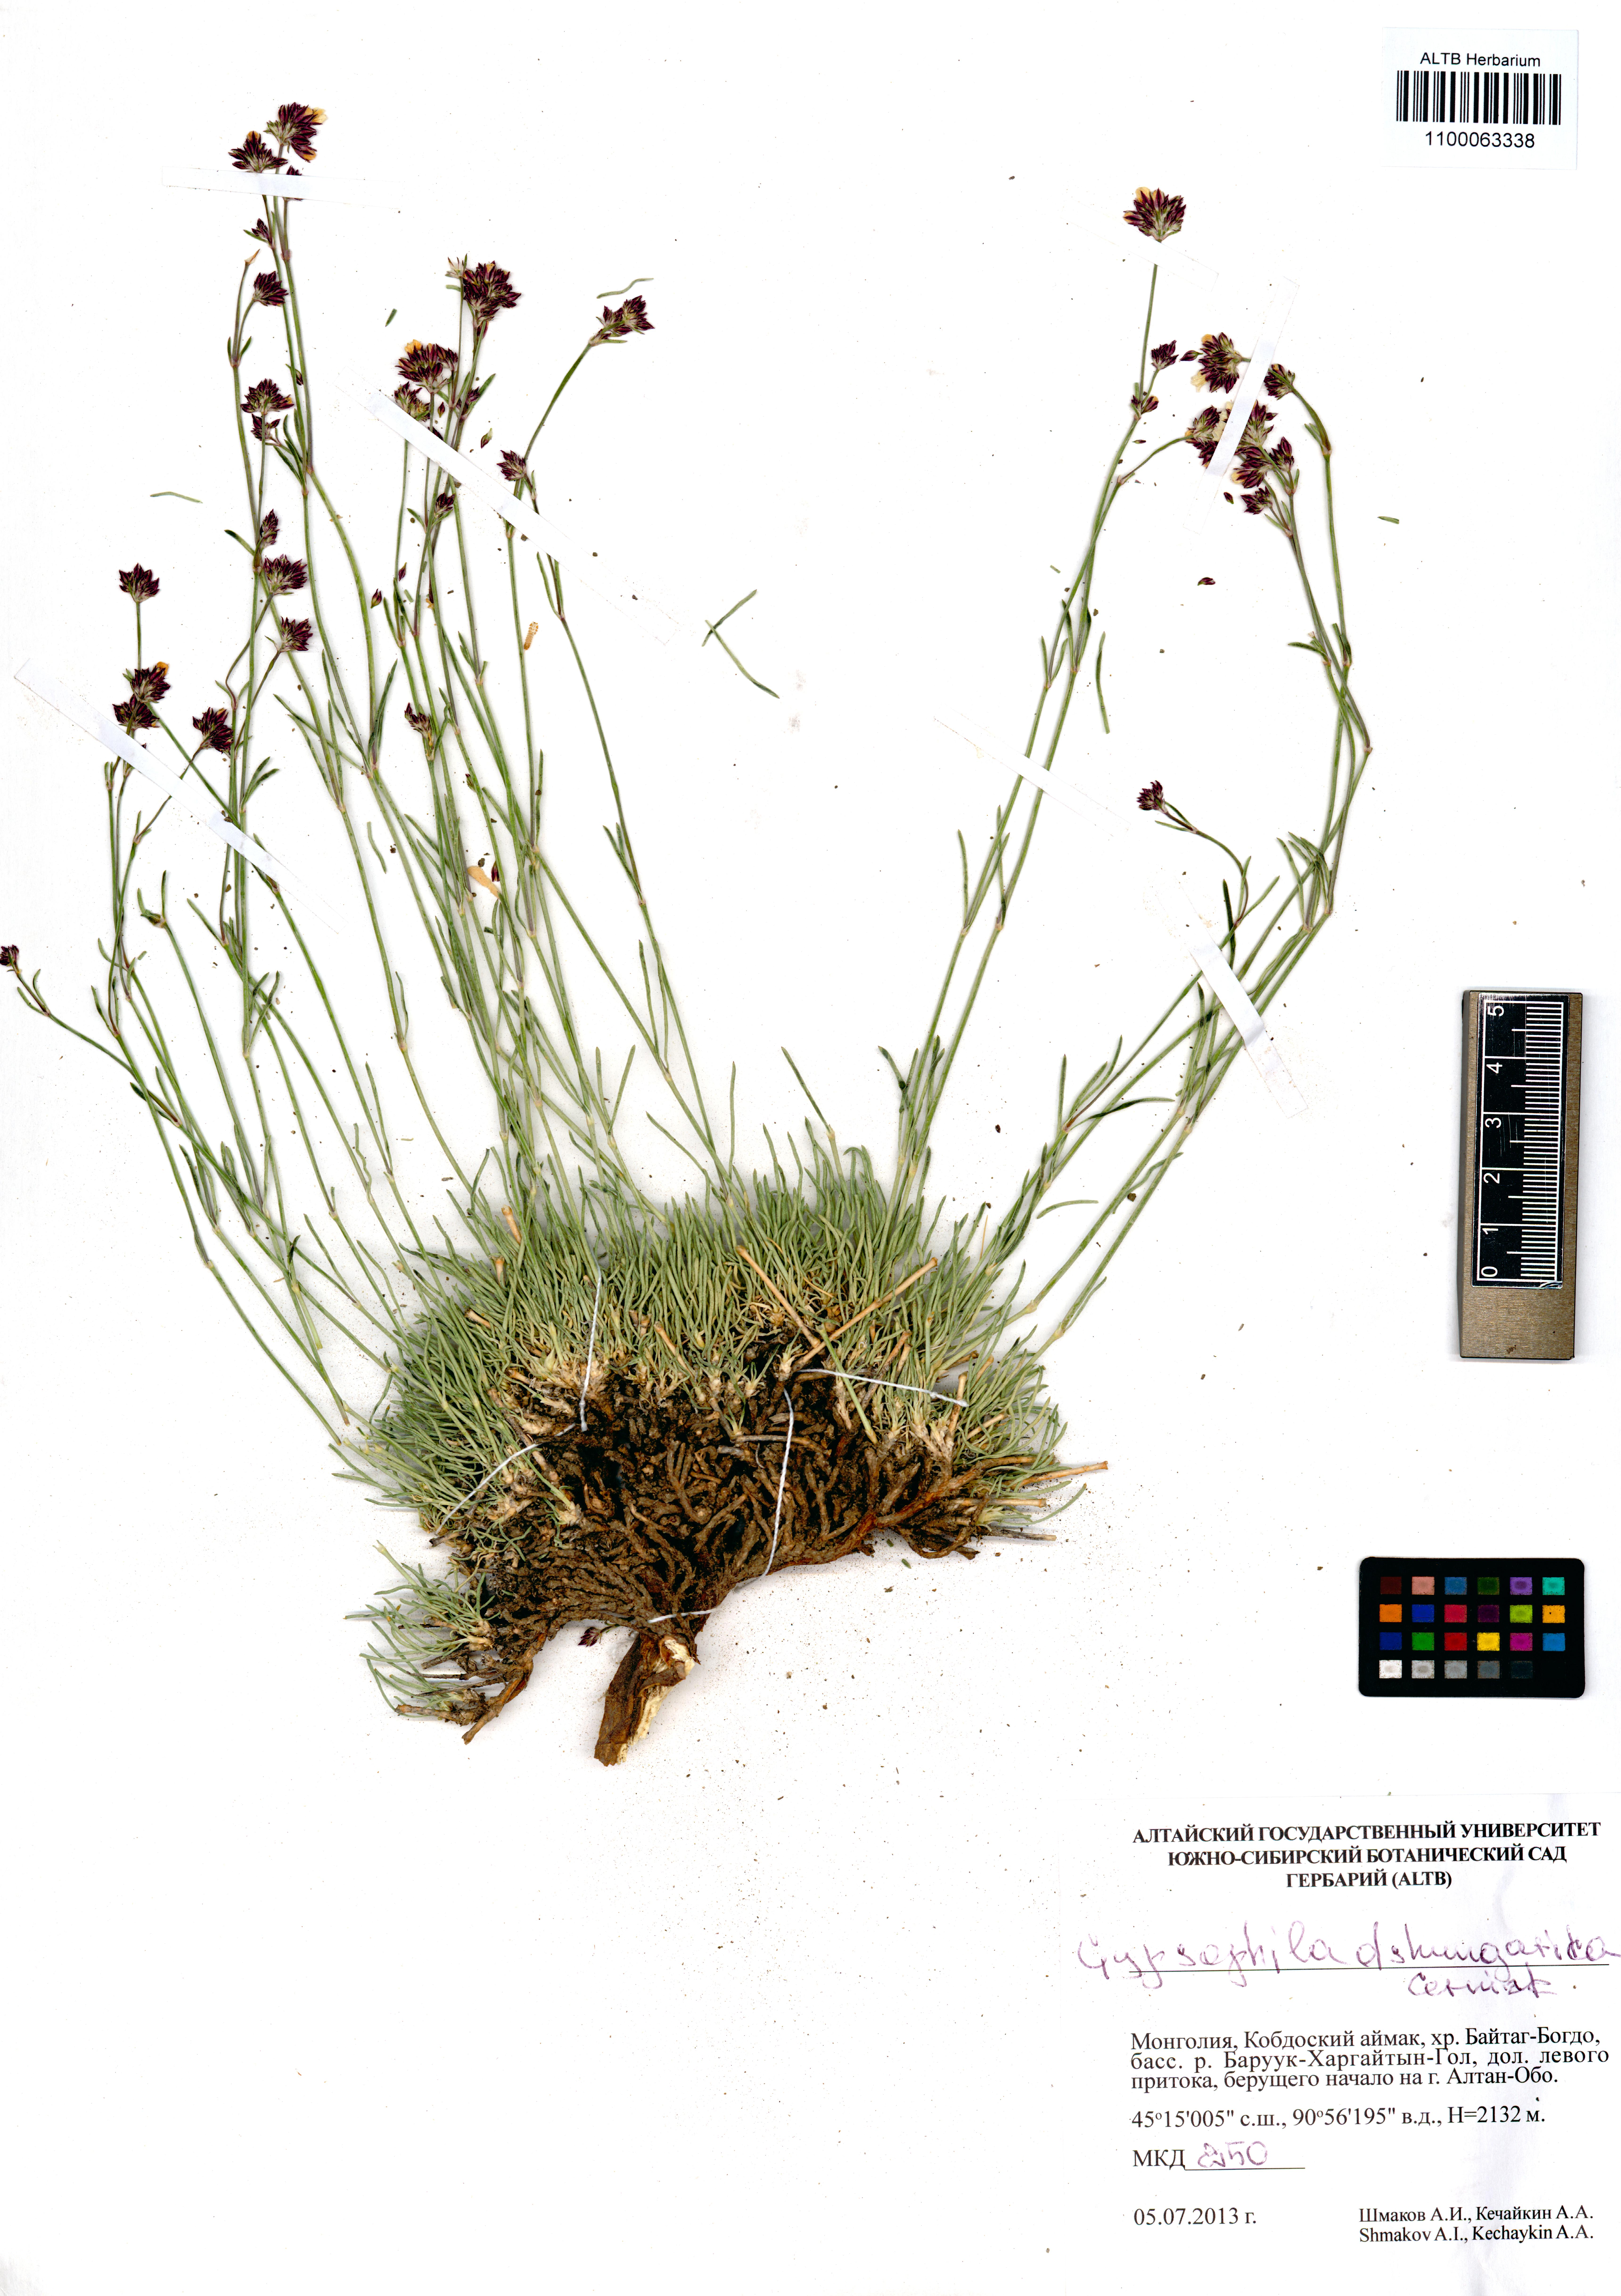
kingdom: Plantae
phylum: Tracheophyta
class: Magnoliopsida
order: Caryophyllales
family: Caryophyllaceae
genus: Gypsophila
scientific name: Gypsophila capituliflora
